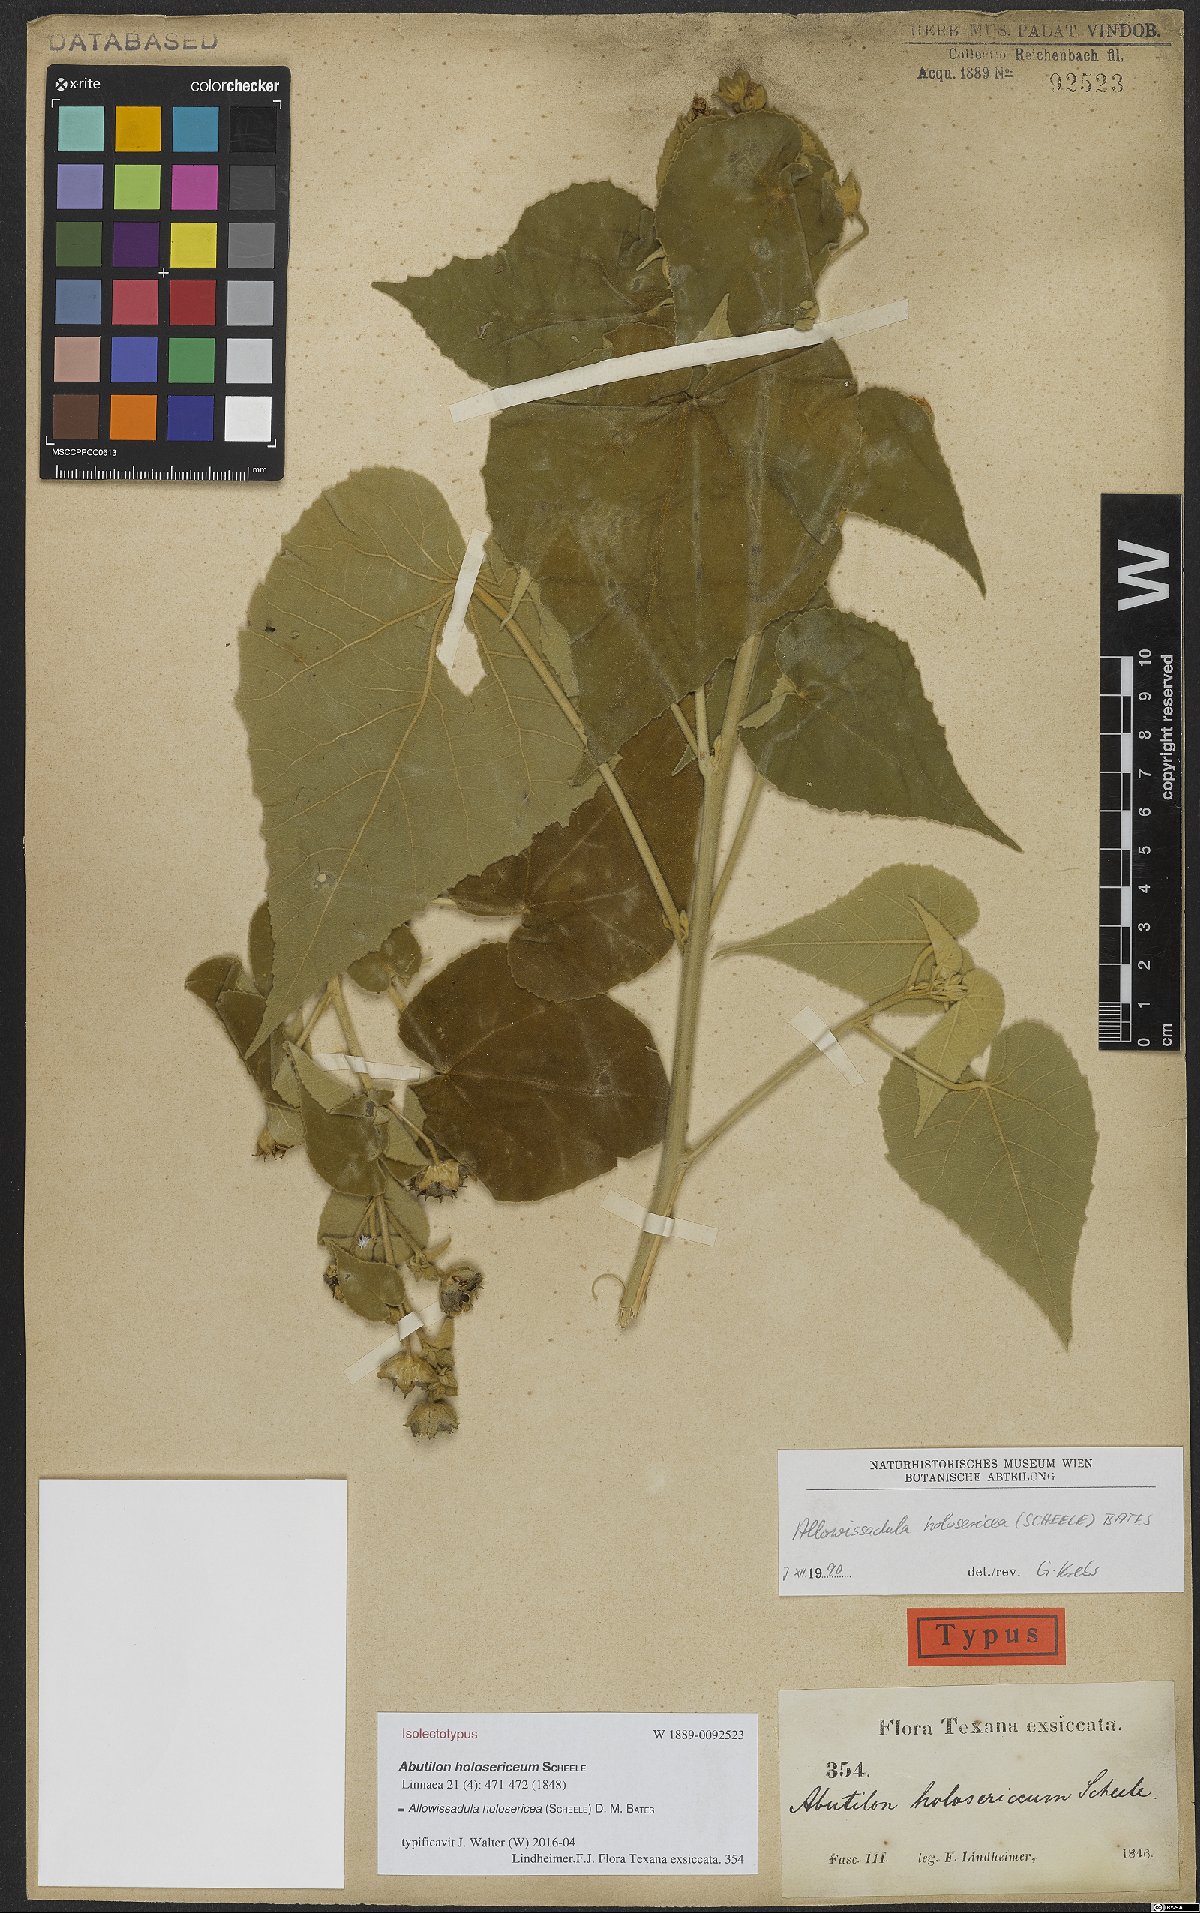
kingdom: Plantae
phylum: Tracheophyta
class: Magnoliopsida
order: Malvales
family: Malvaceae
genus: Allowissadula
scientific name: Allowissadula holosericea
